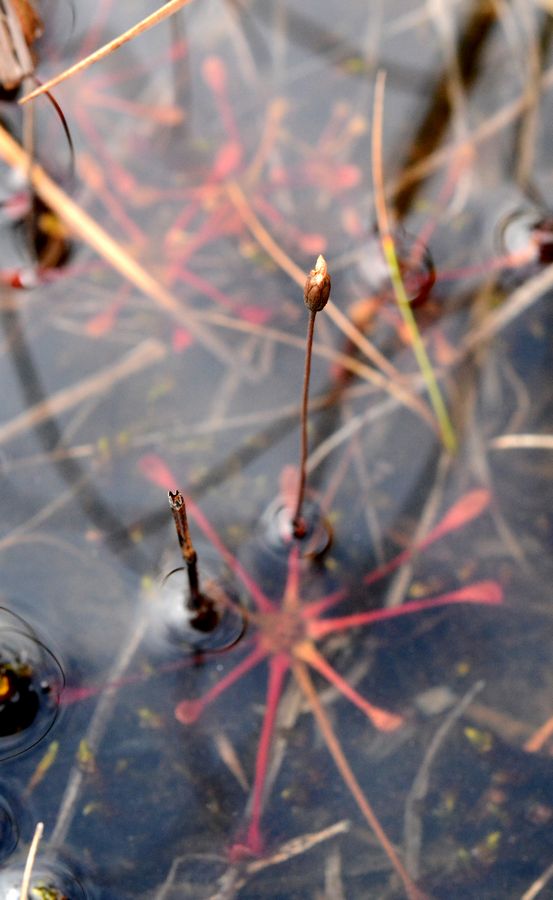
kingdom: Plantae
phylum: Tracheophyta
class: Magnoliopsida
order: Caryophyllales
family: Droseraceae
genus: Drosera
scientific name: Drosera anglica
